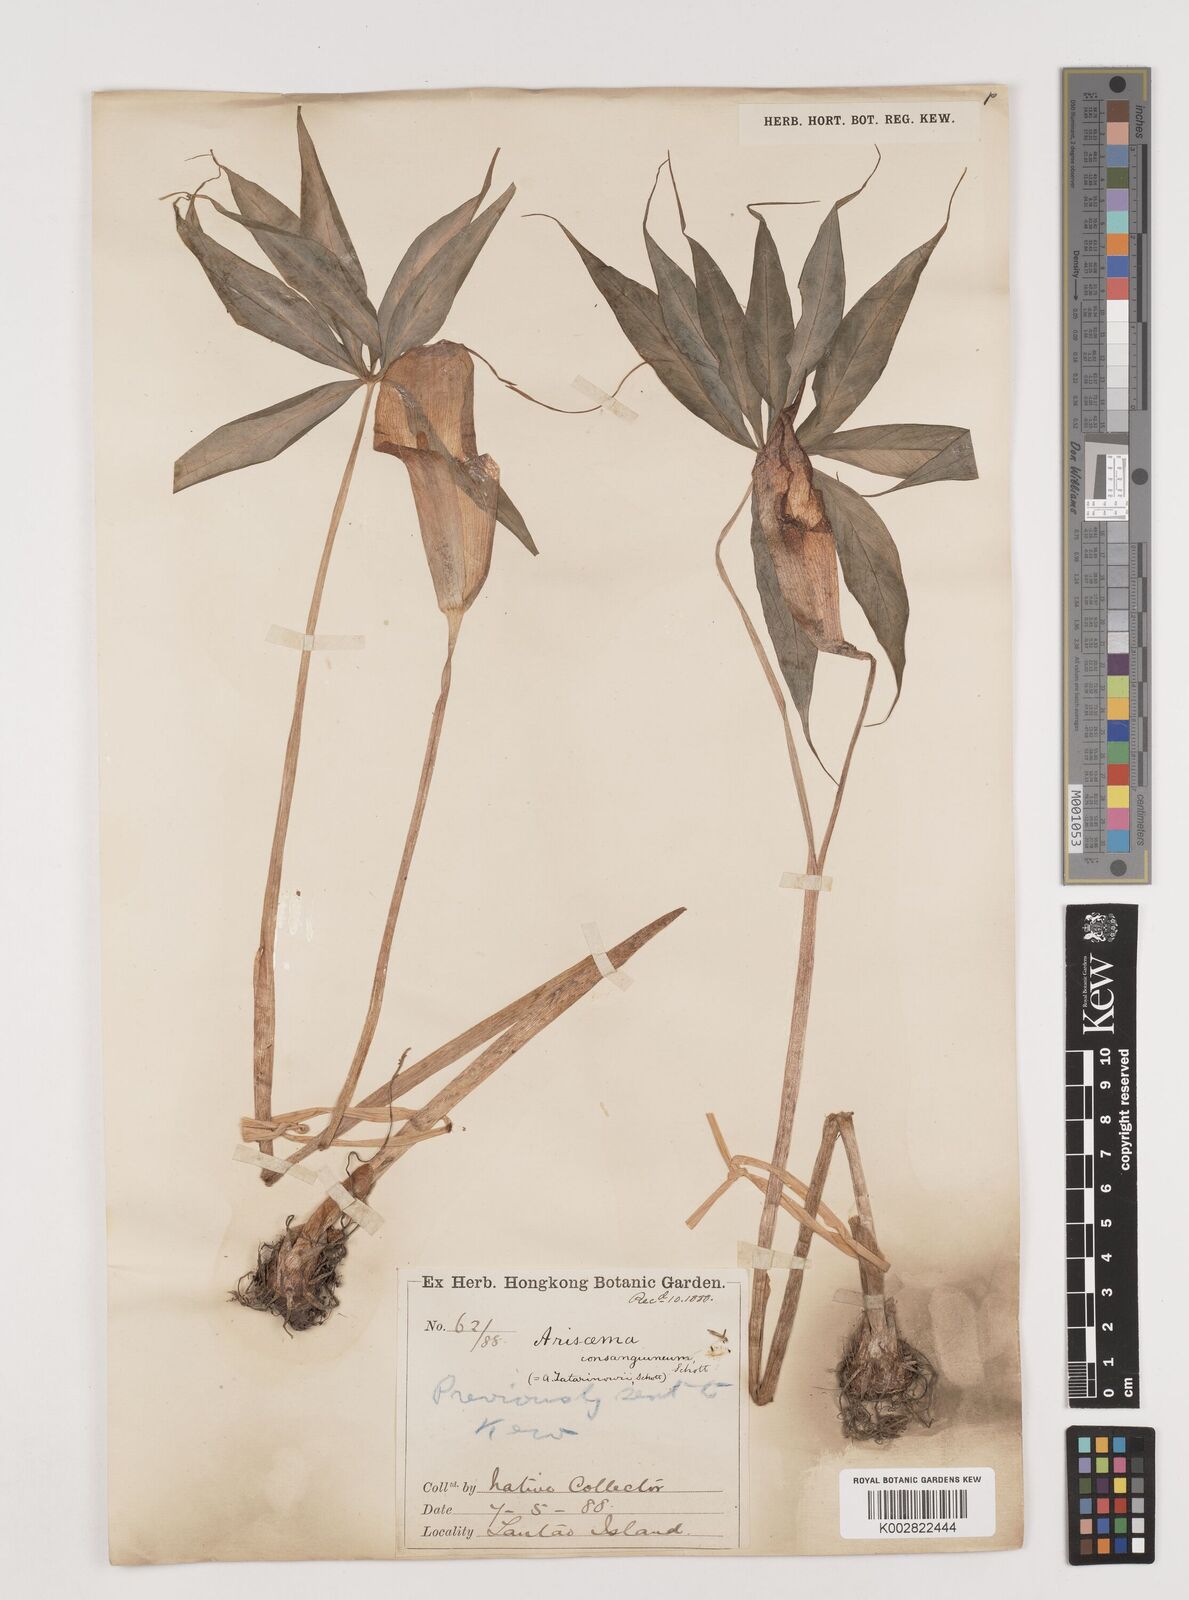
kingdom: Plantae
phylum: Tracheophyta
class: Liliopsida
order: Alismatales
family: Araceae
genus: Arisaema
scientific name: Arisaema erubescens
